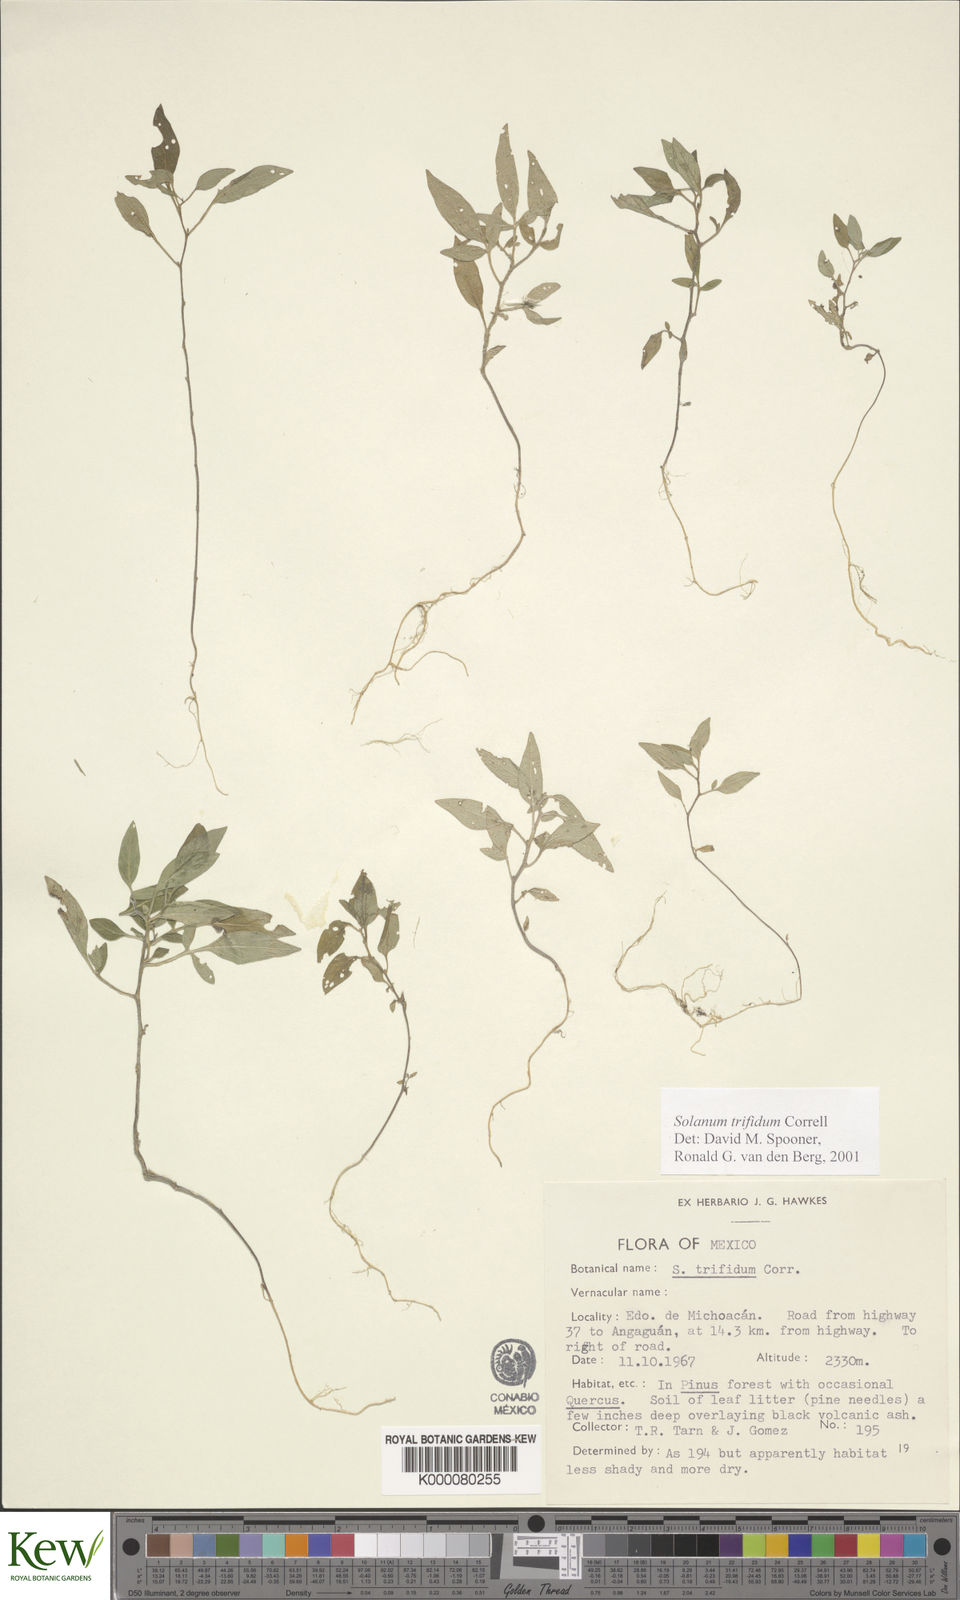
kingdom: Plantae
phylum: Tracheophyta
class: Magnoliopsida
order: Solanales
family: Solanaceae
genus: Solanum
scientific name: Solanum trifidum
